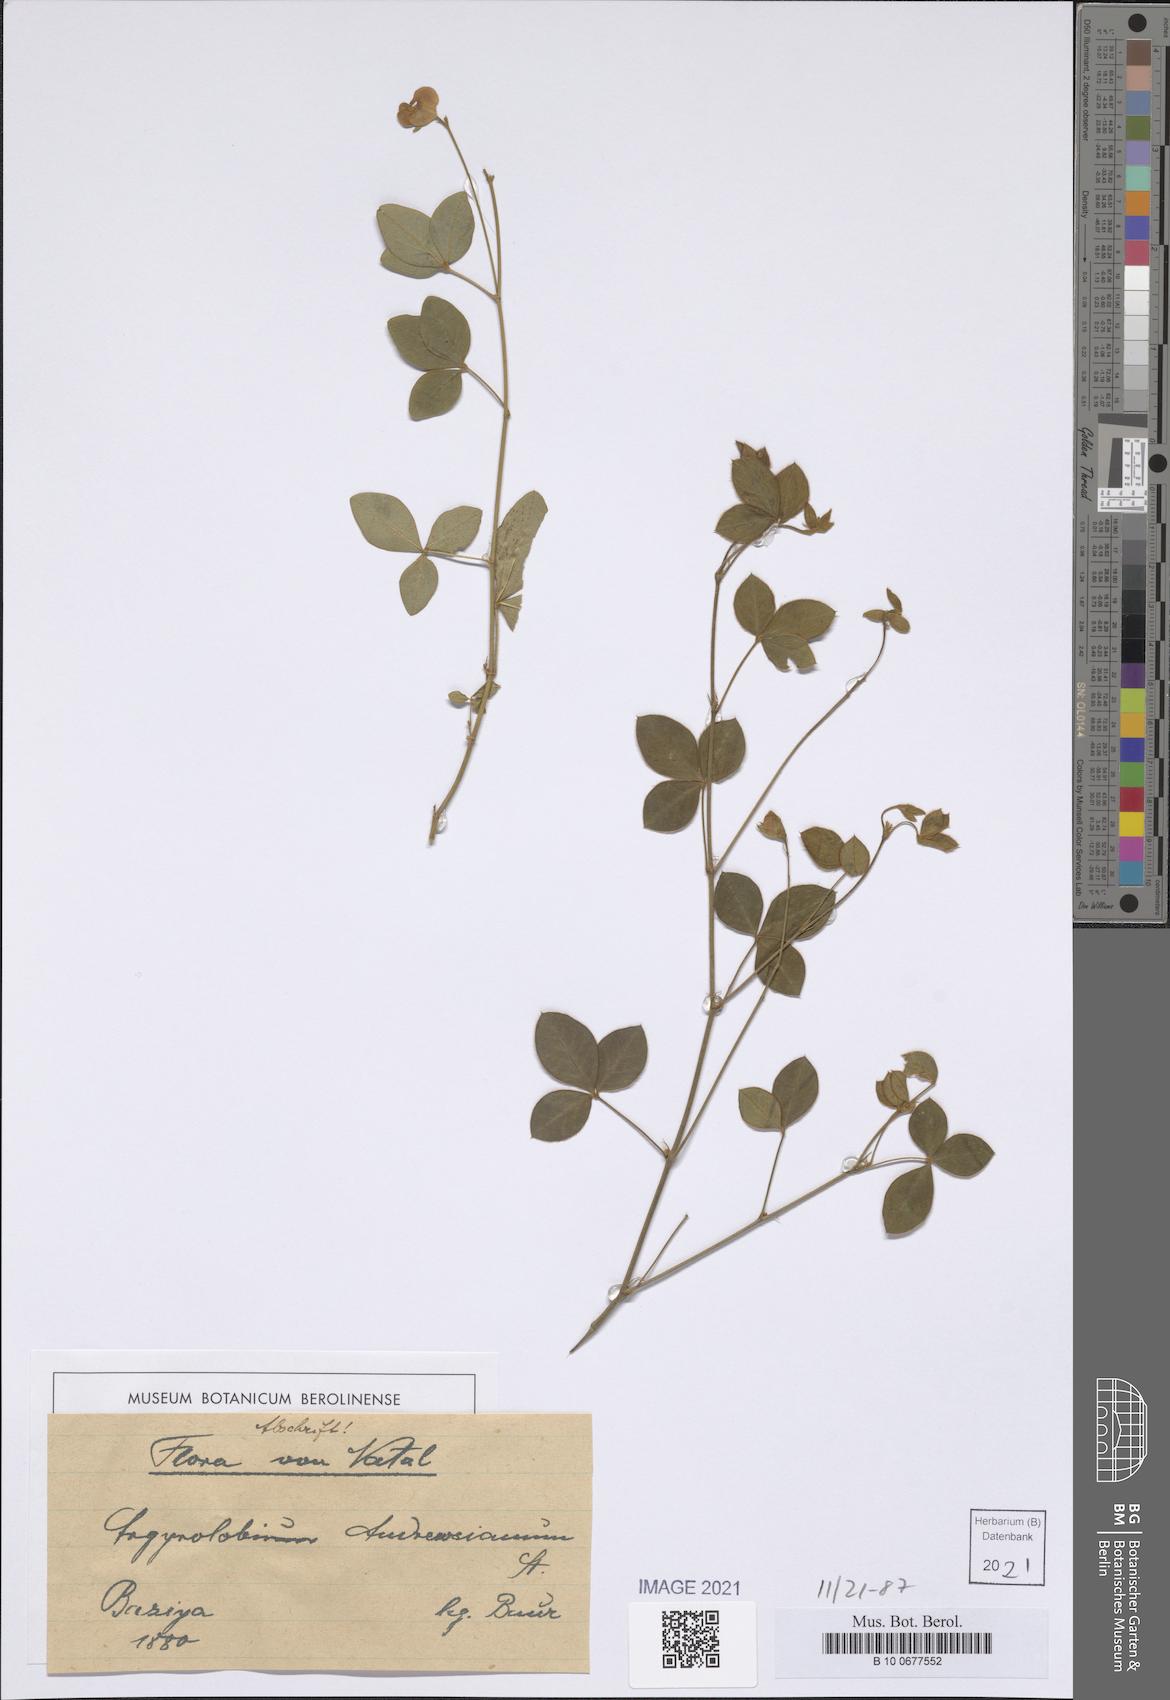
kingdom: Plantae
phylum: Tracheophyta
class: Magnoliopsida
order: Fabales
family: Fabaceae
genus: Argyrolobium
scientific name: Argyrolobium tomentosum
